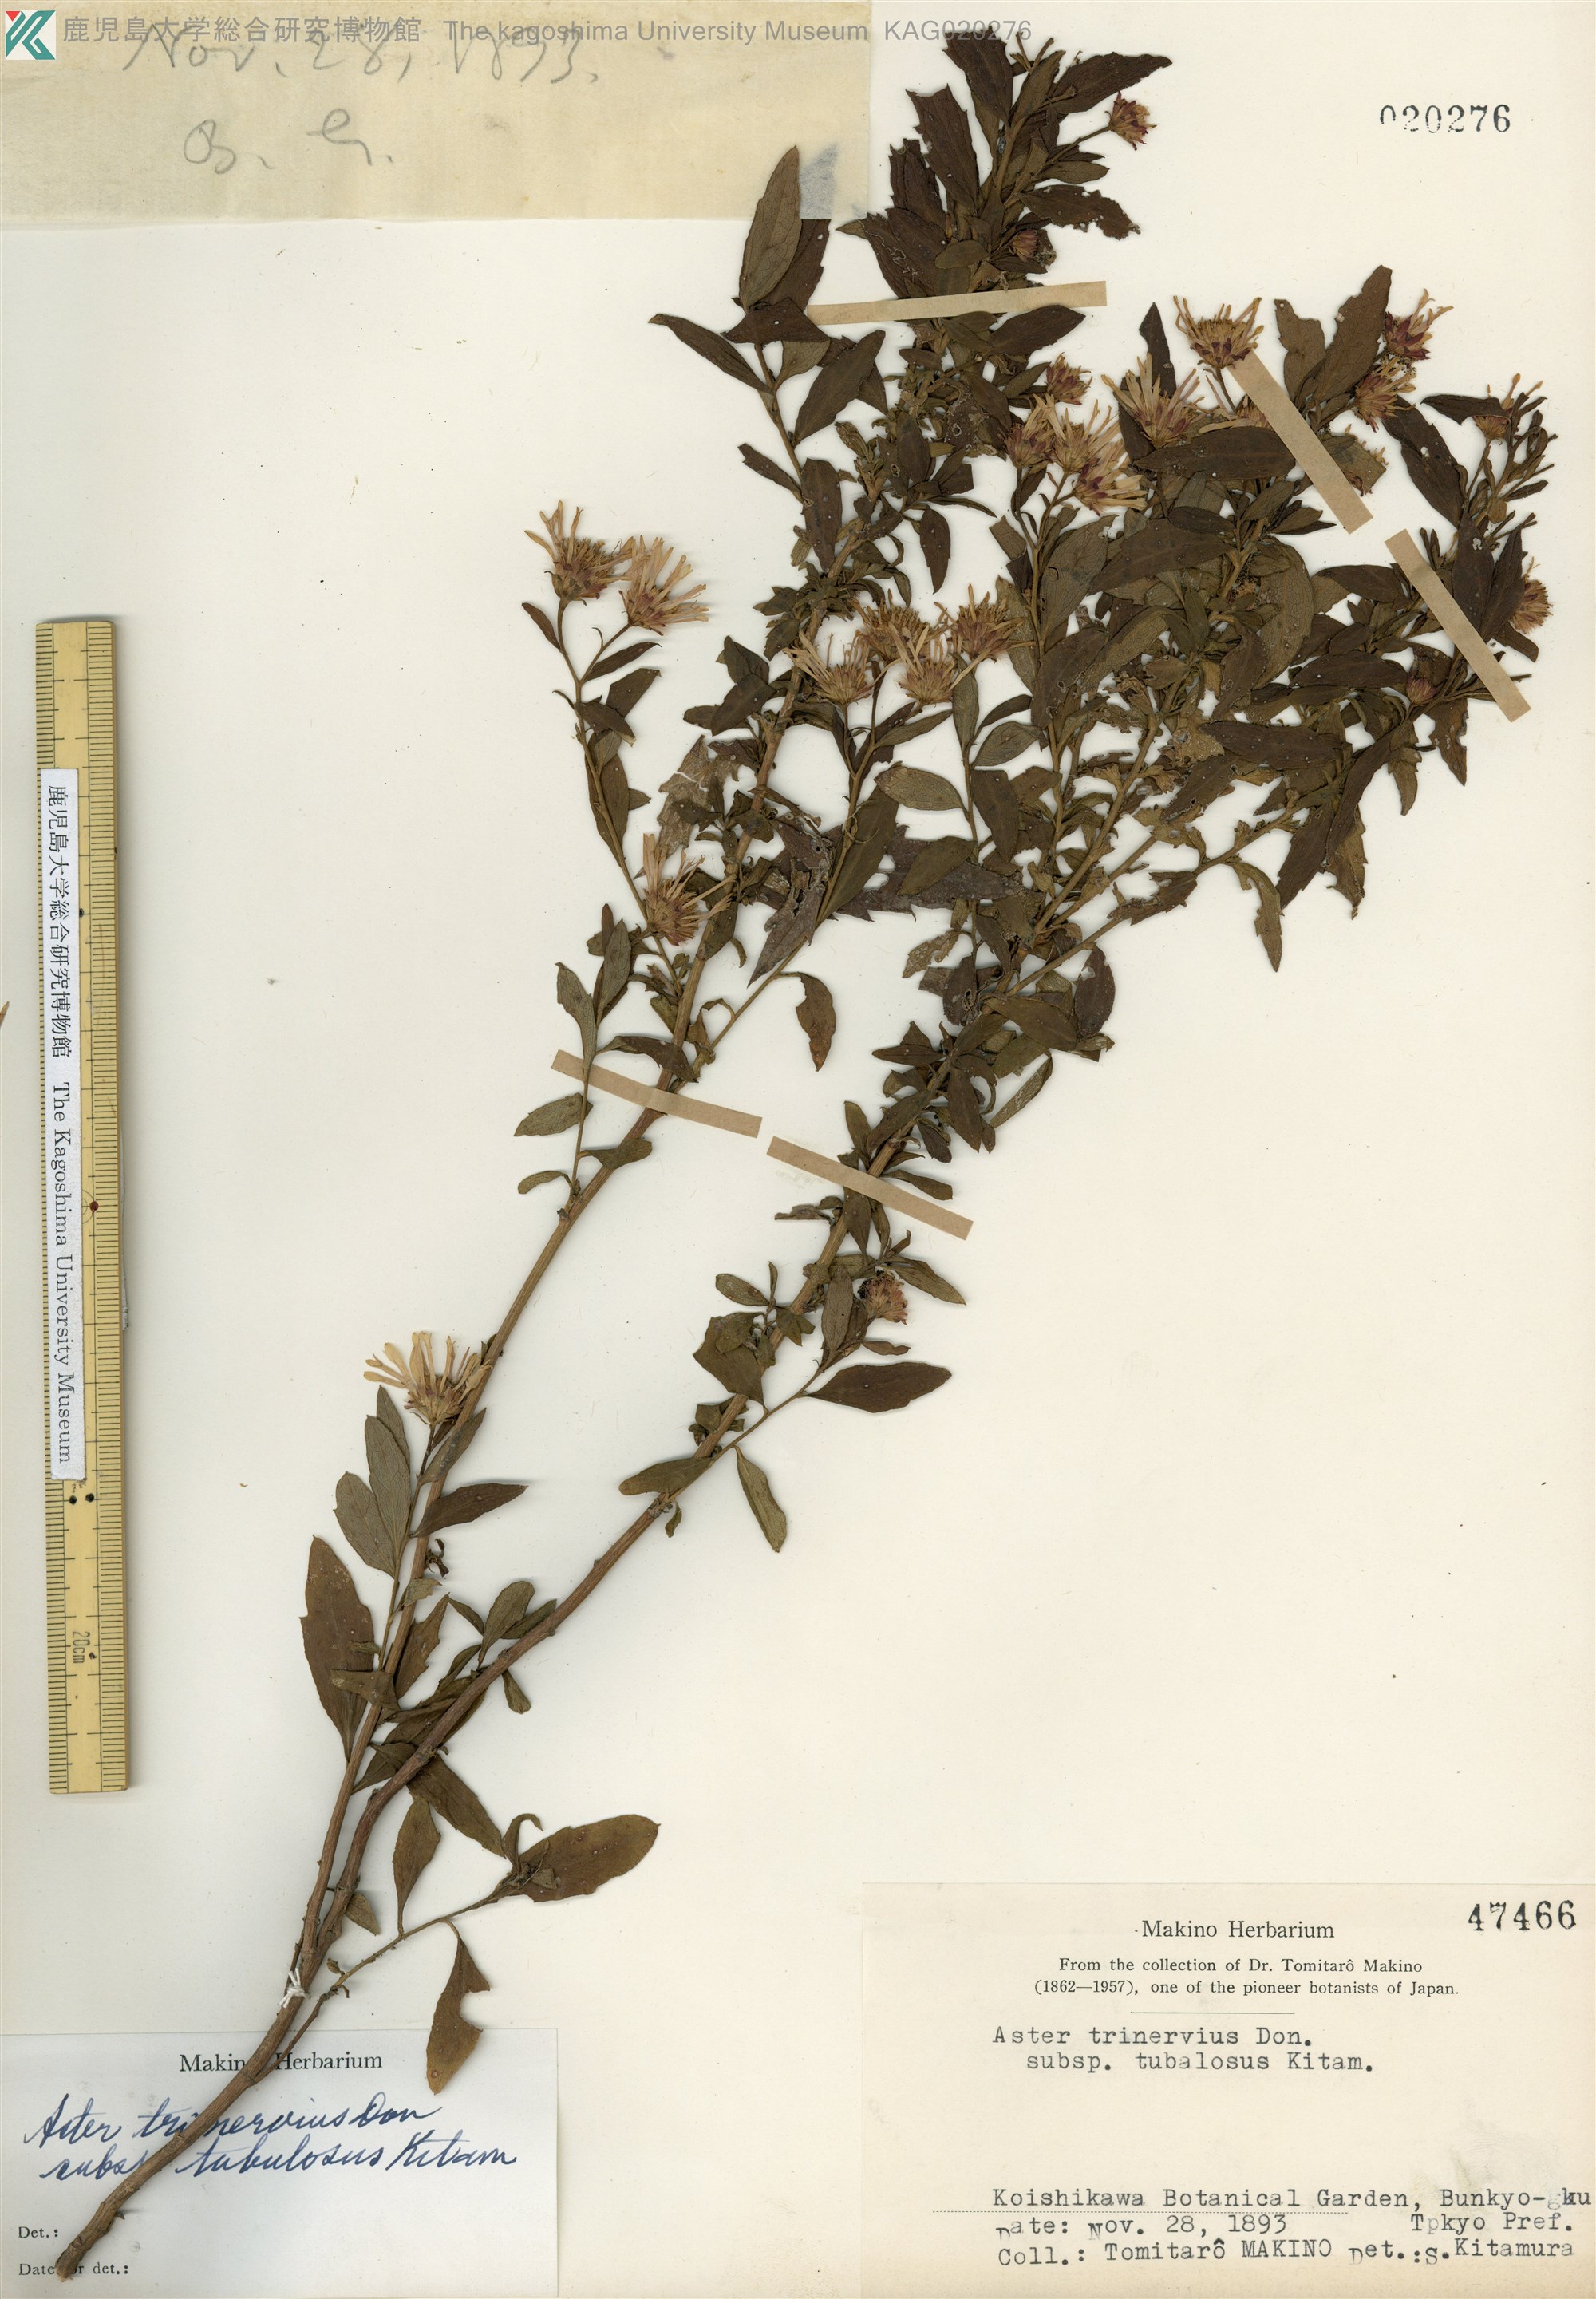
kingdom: Plantae
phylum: Tracheophyta
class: Magnoliopsida
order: Asterales
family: Asteraceae
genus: Aster
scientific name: Aster microcephalus
